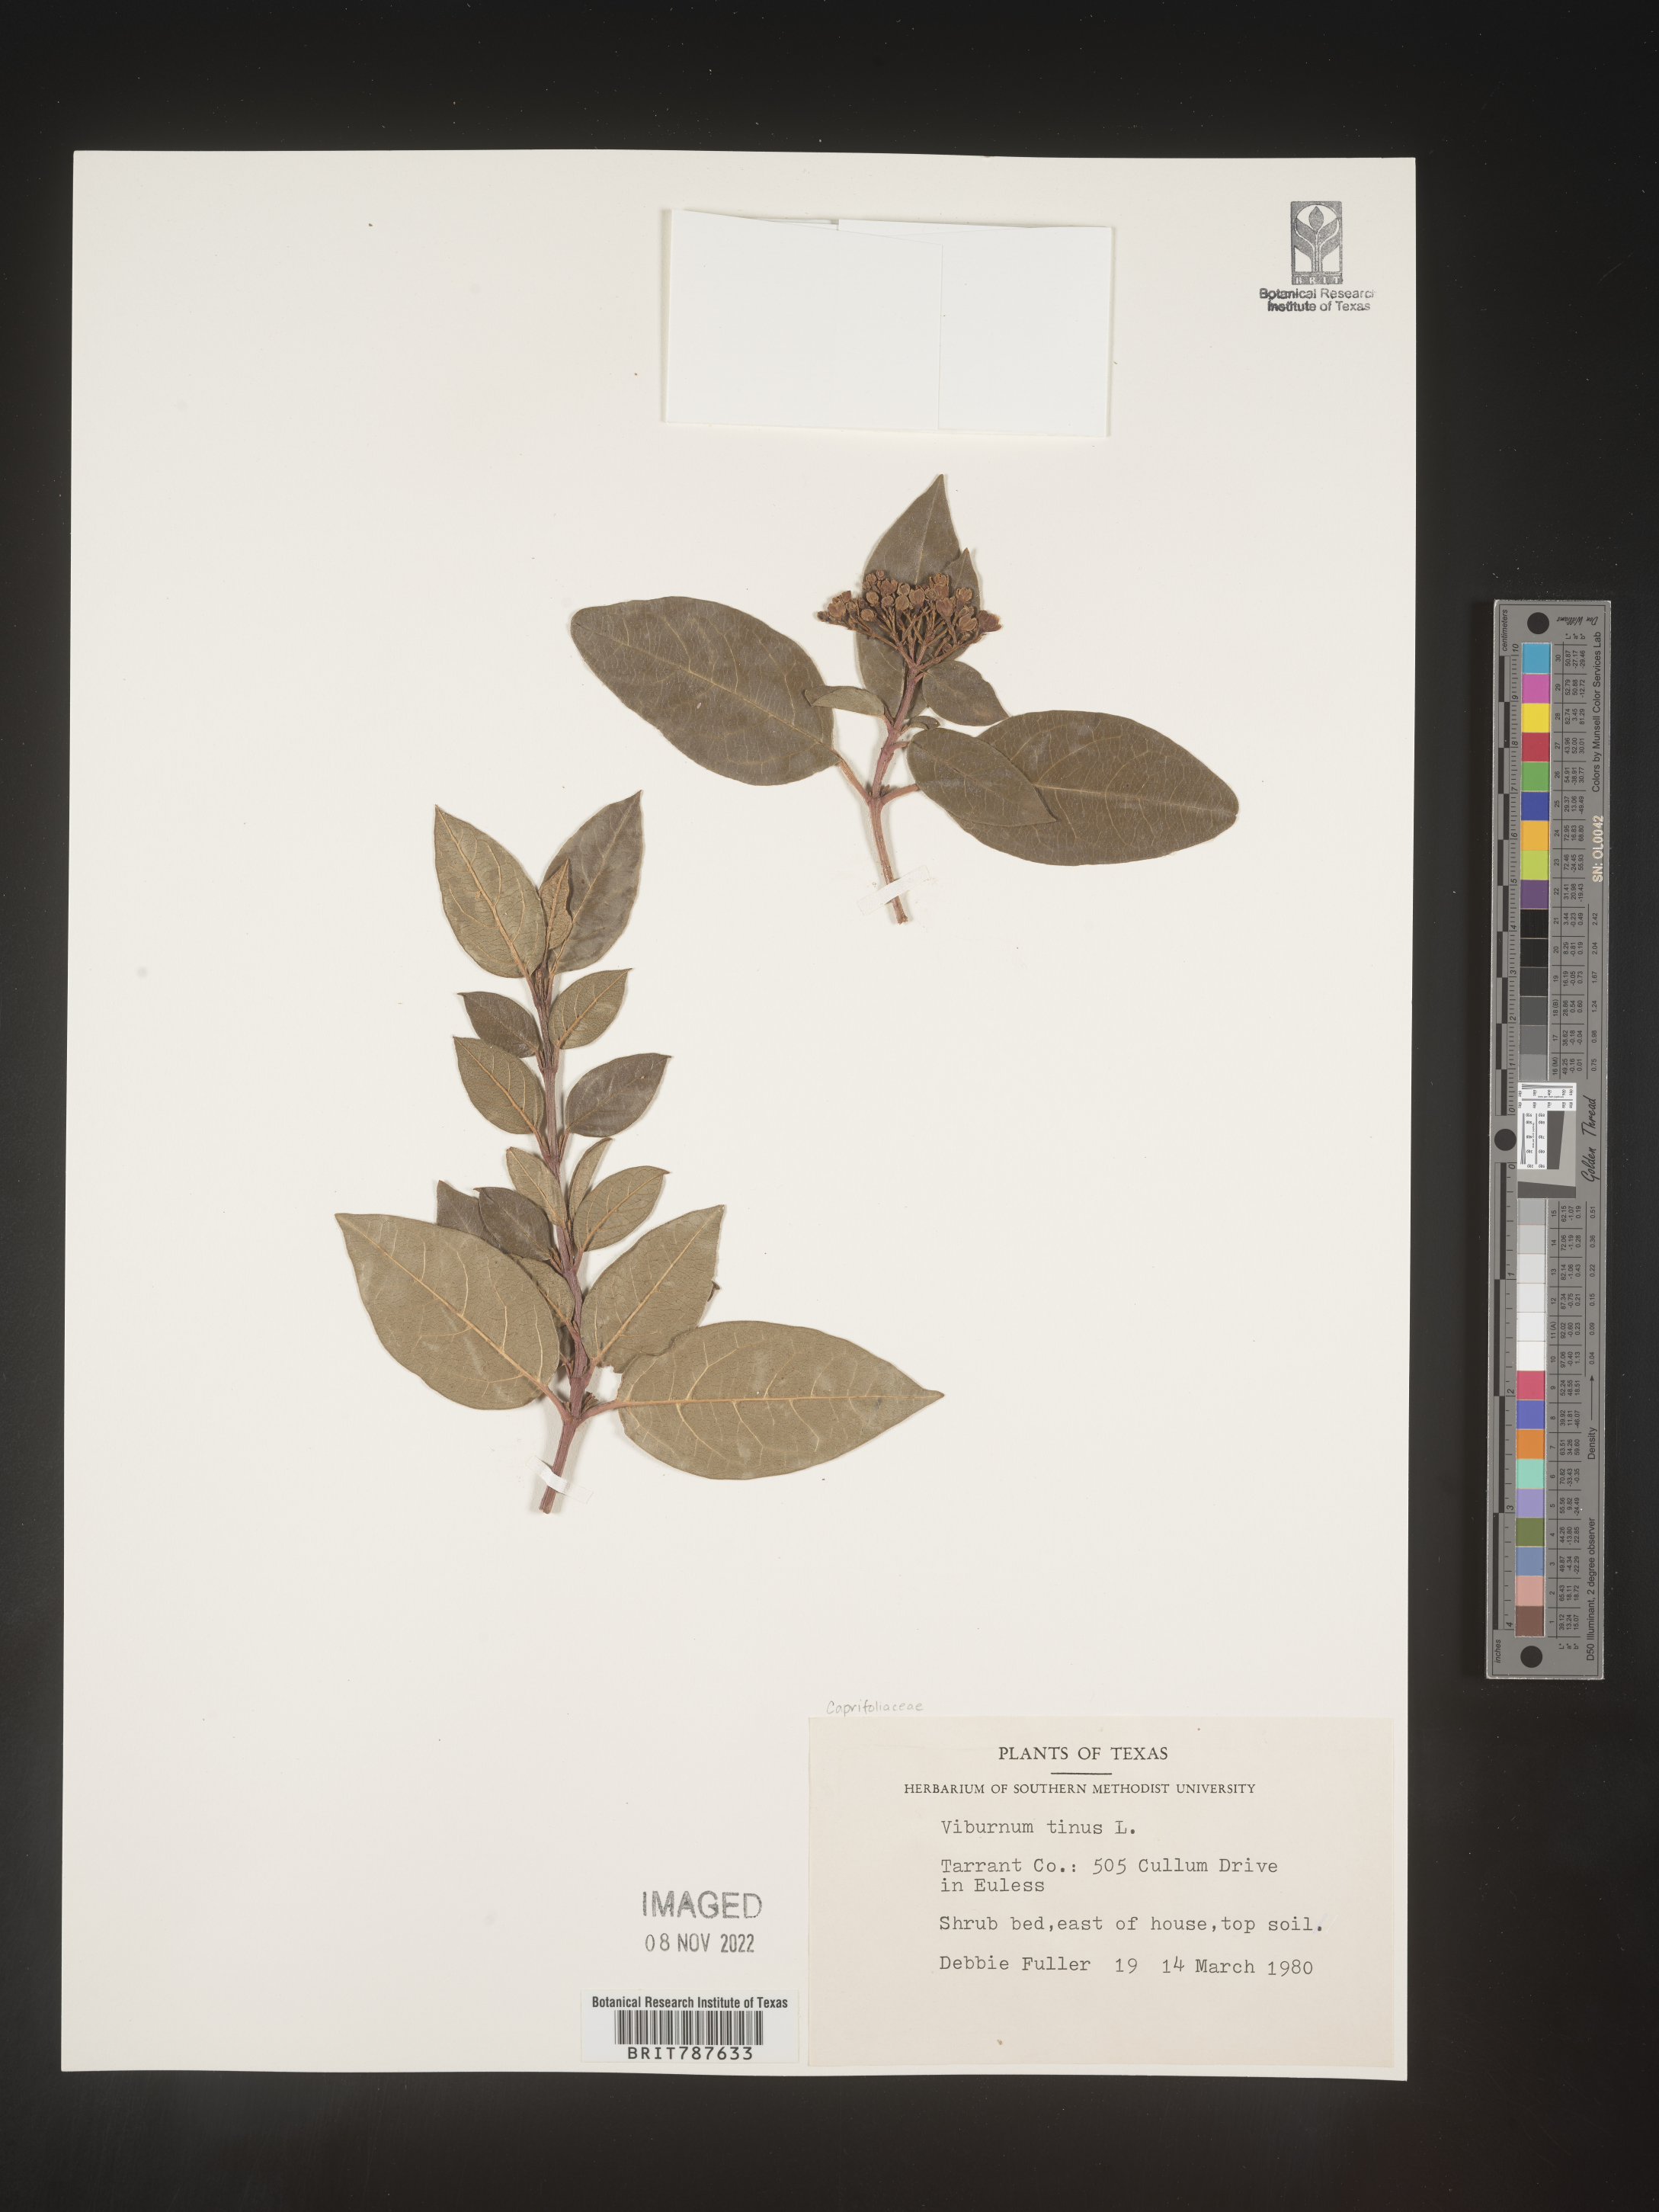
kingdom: Plantae
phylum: Tracheophyta
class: Magnoliopsida
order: Dipsacales
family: Viburnaceae
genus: Viburnum
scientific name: Viburnum
